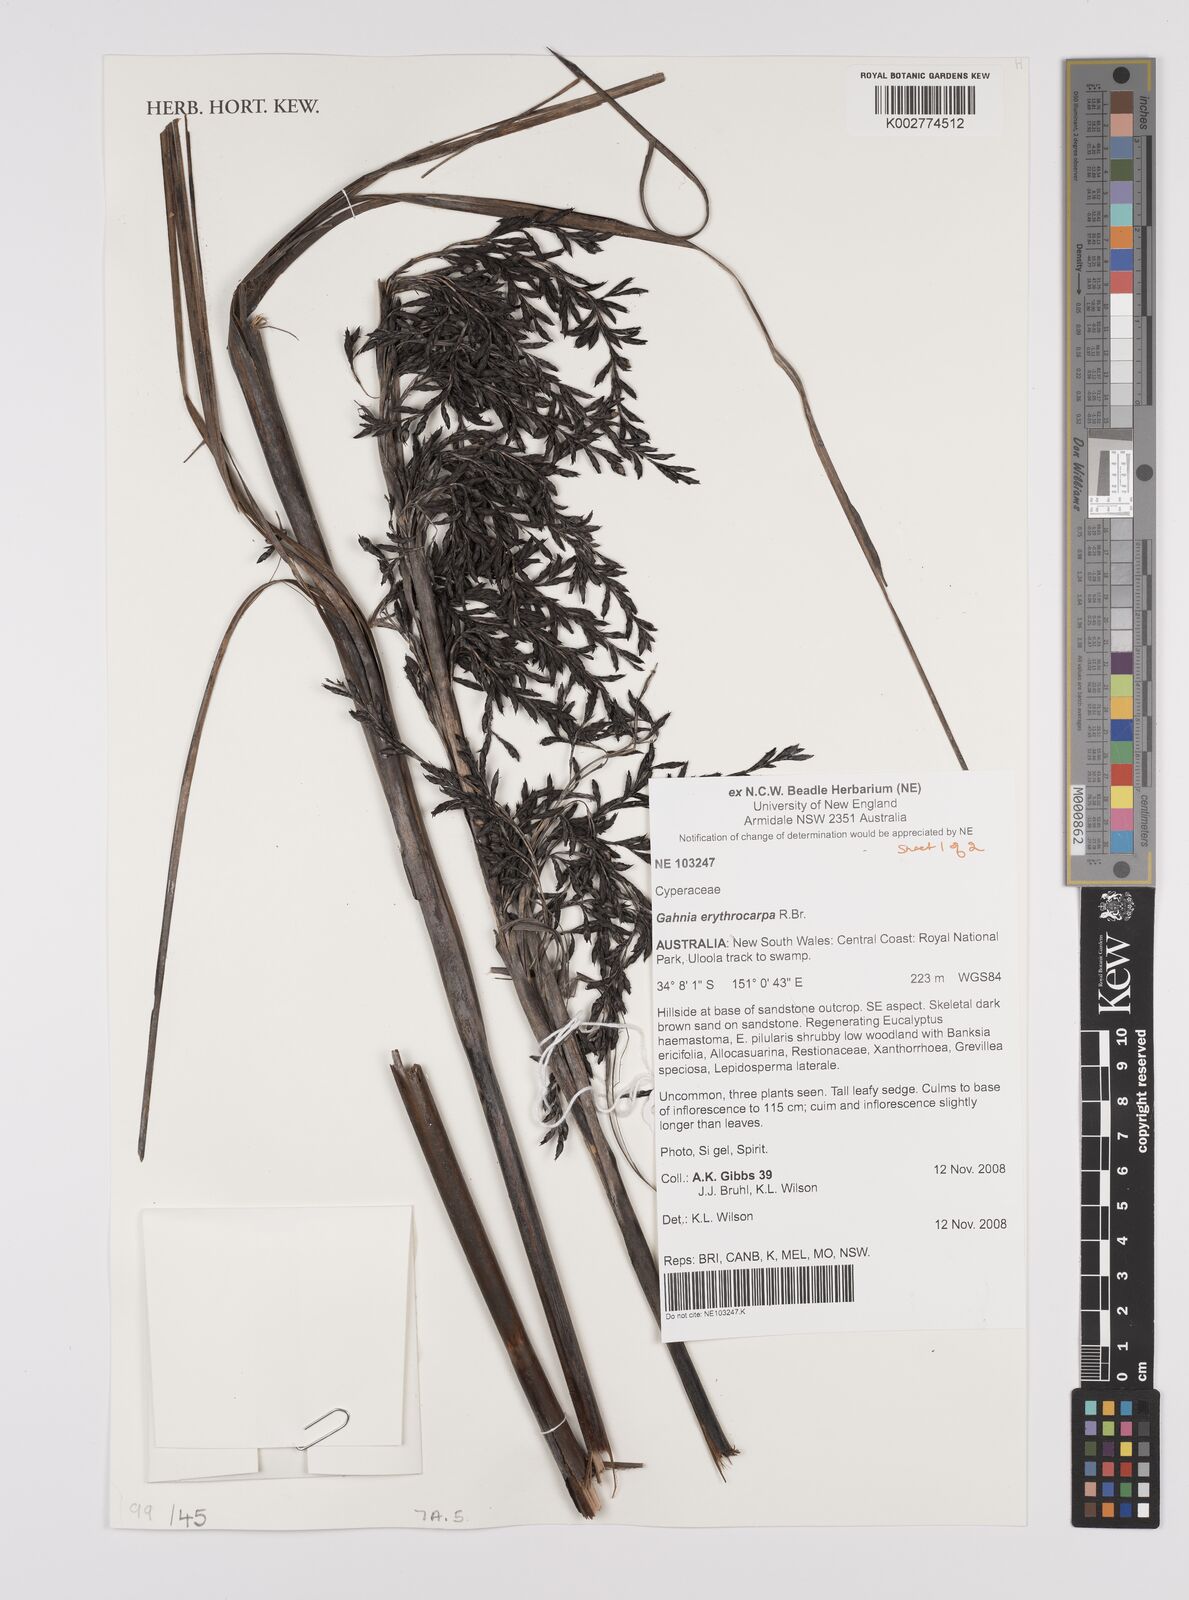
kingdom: Plantae
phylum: Tracheophyta
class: Liliopsida
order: Poales
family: Cyperaceae
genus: Gahnia
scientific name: Gahnia erythrocarpa
